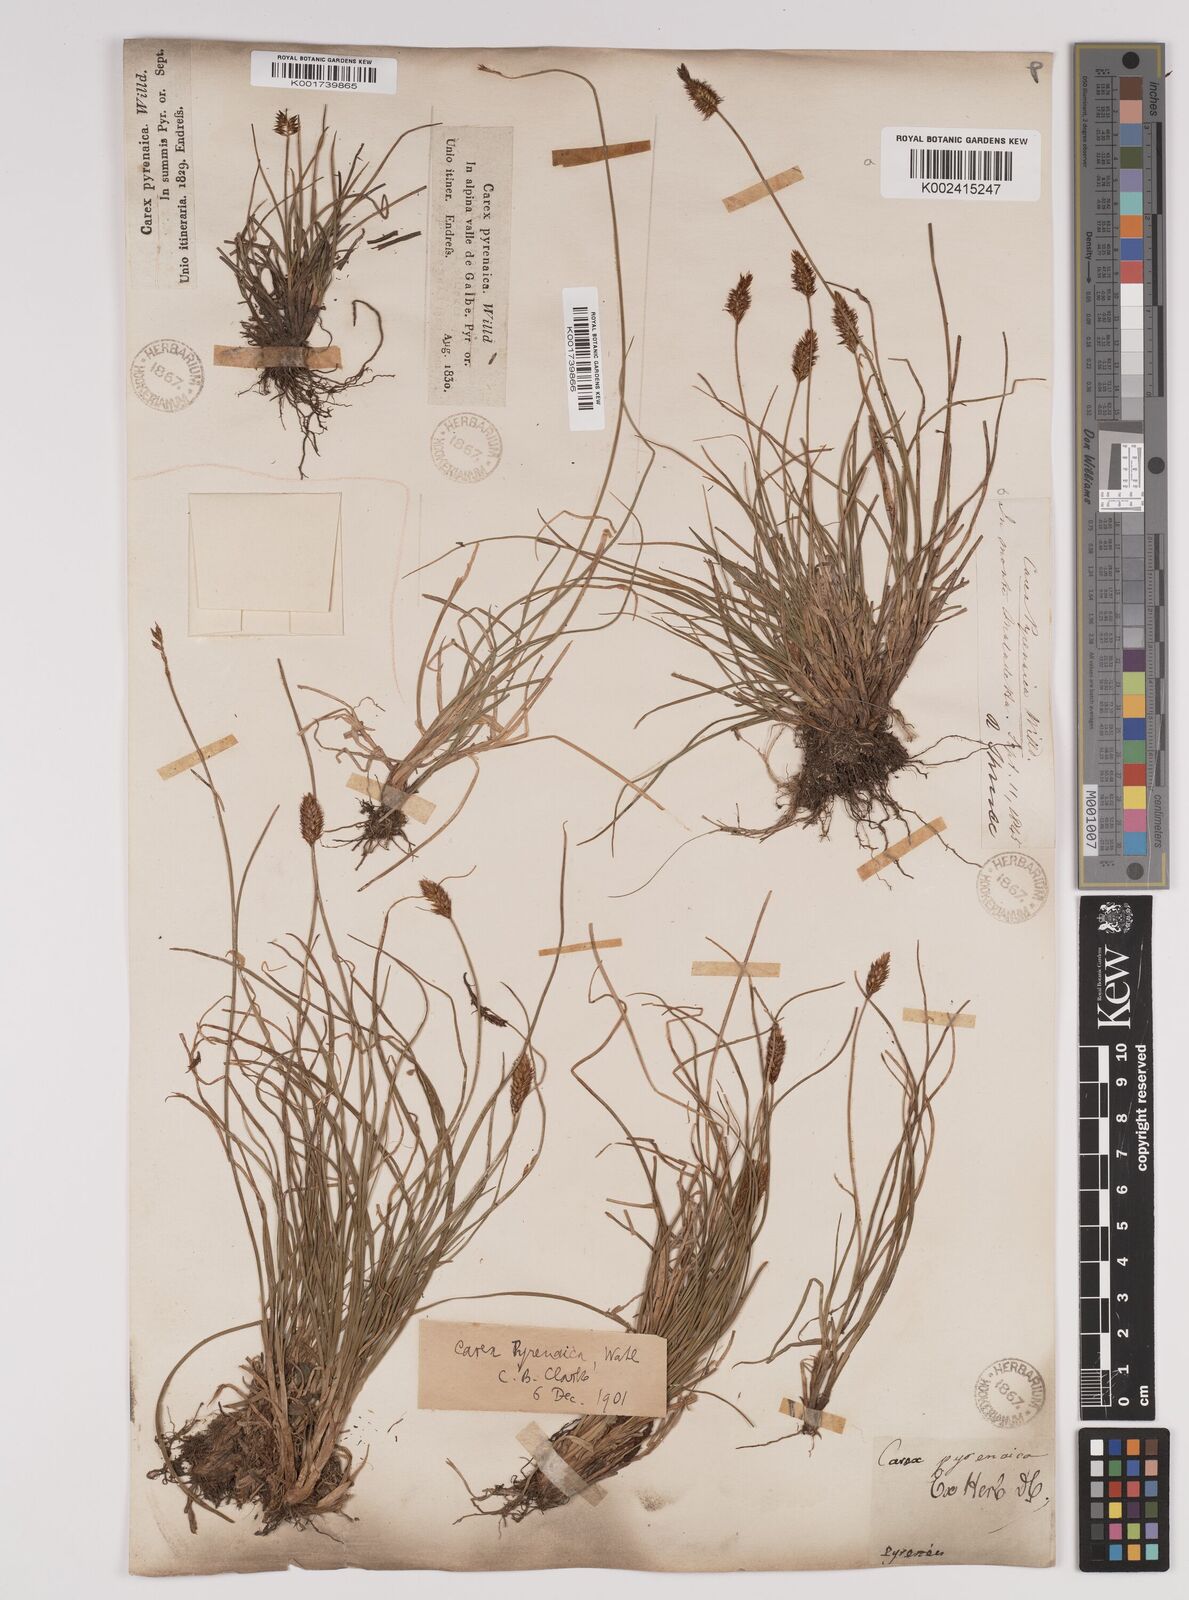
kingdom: Plantae
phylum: Tracheophyta
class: Liliopsida
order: Poales
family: Cyperaceae
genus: Carex
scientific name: Carex acicularis
